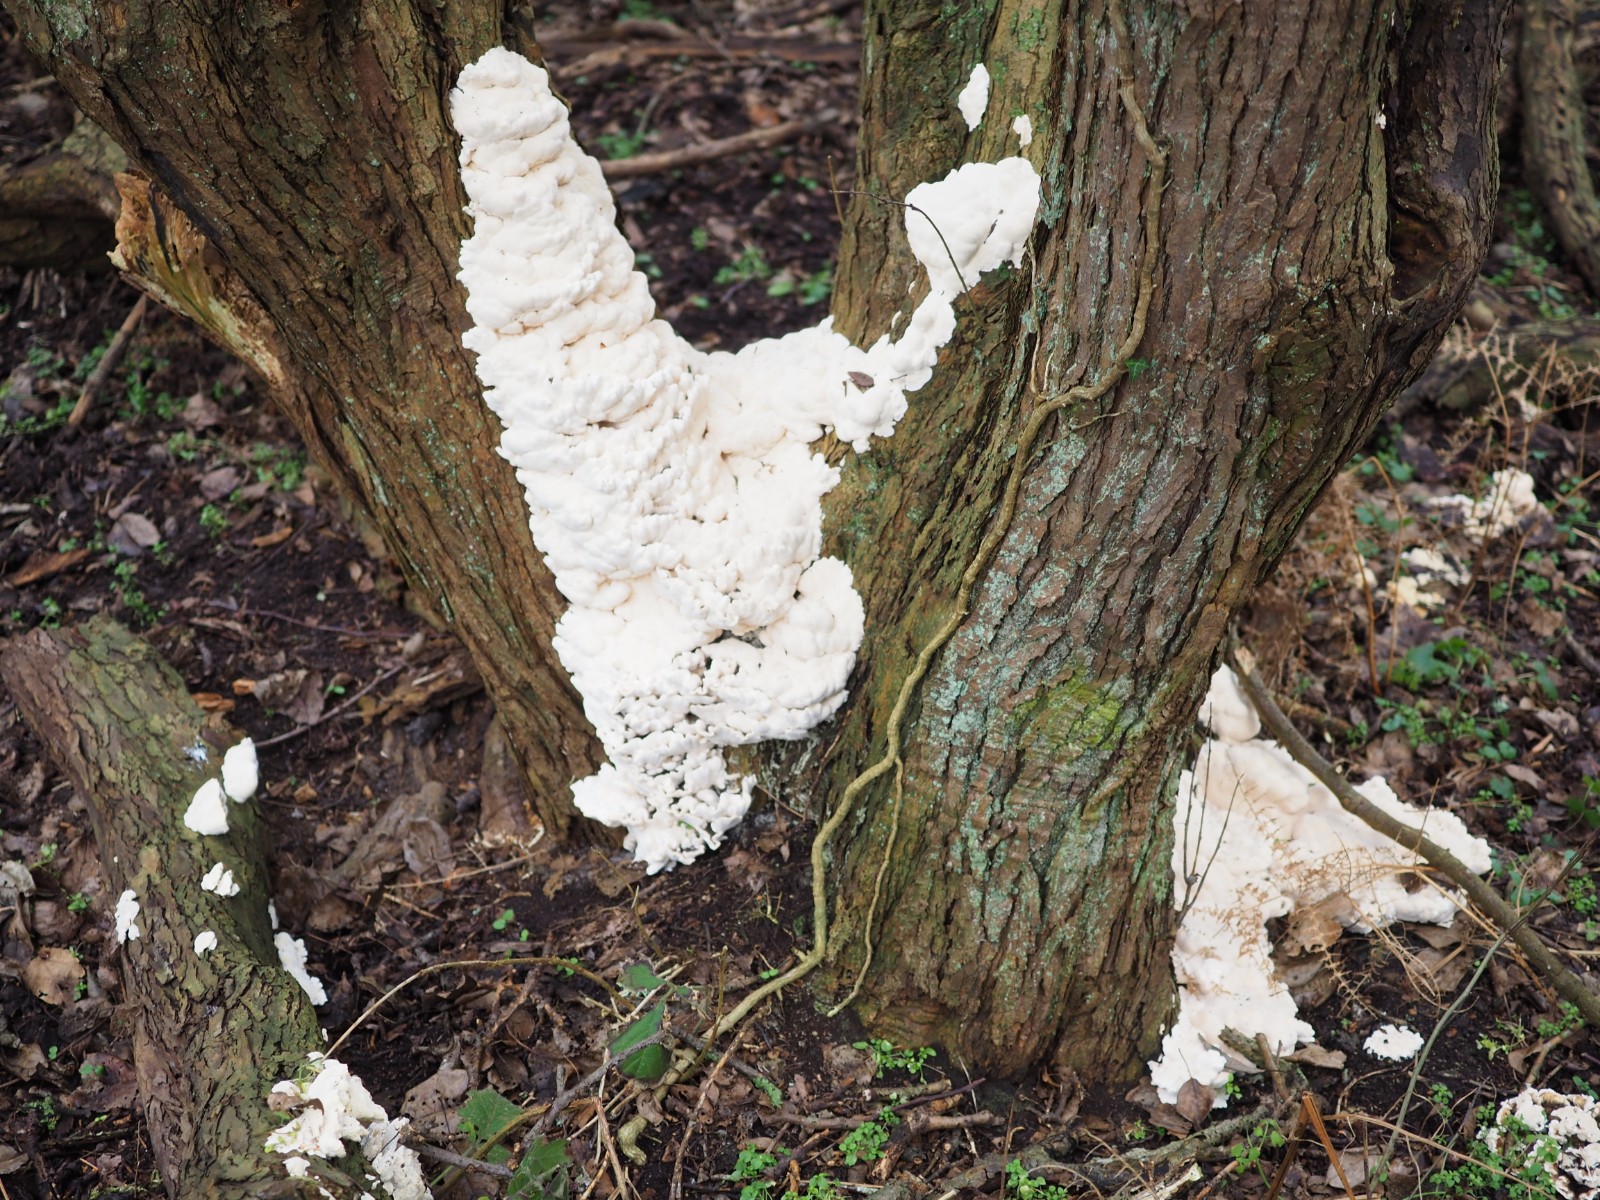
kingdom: Fungi
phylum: Basidiomycota
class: Agaricomycetes
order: Hymenochaetales
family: Oxyporaceae
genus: Oxyporus
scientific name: Oxyporus populinus
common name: sammenvokset trylleporesvamp
